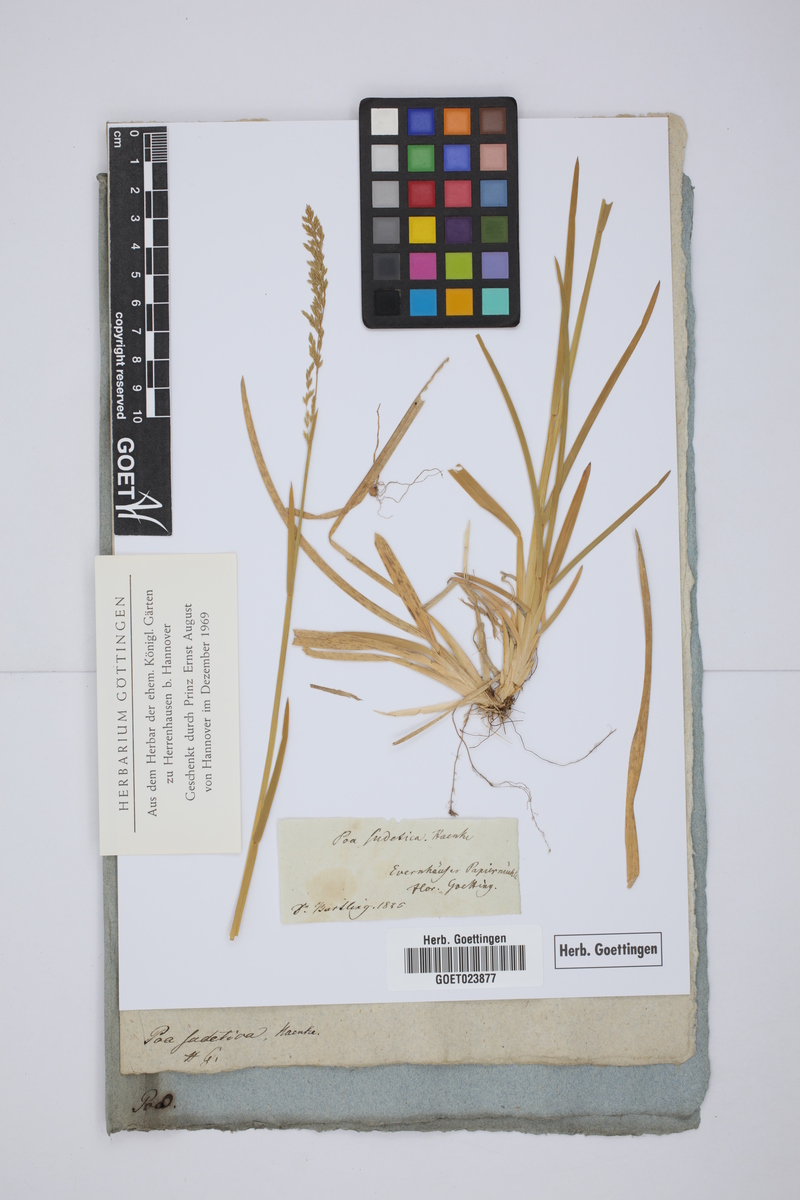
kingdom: Plantae
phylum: Tracheophyta
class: Liliopsida
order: Poales
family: Poaceae
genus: Poa
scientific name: Poa chaixii
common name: Broad-leaved meadow-grass
